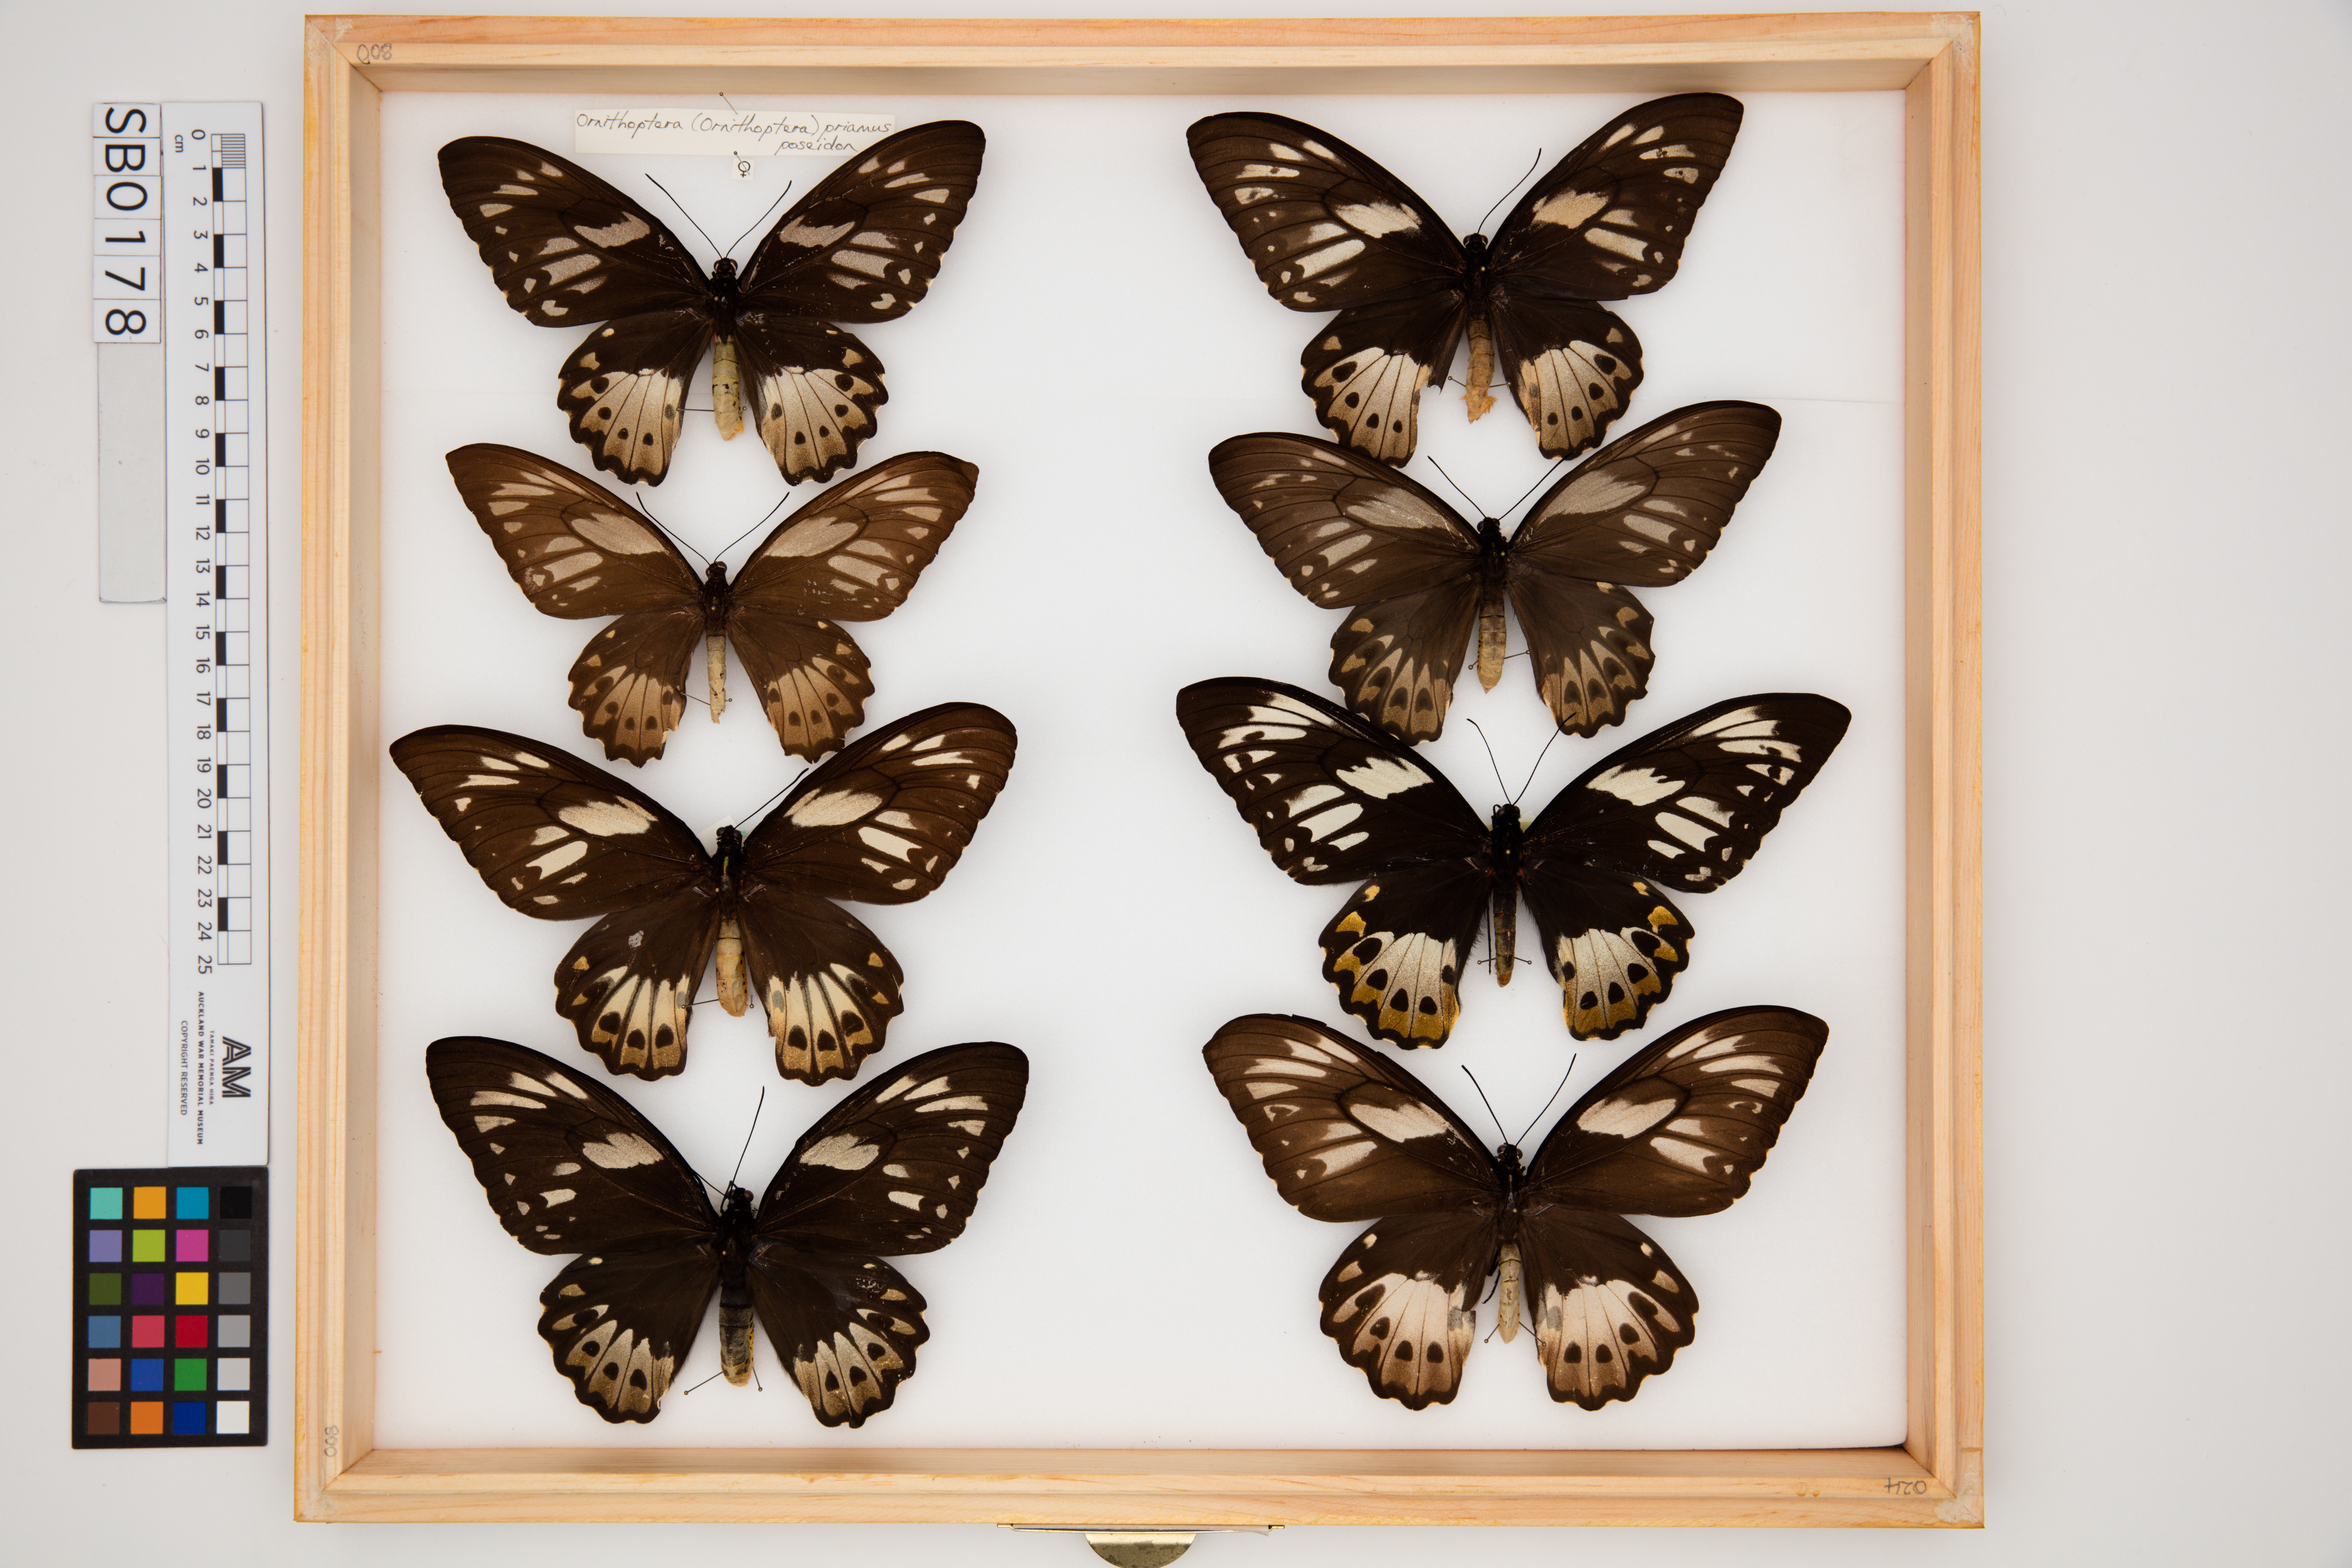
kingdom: Animalia
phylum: Arthropoda
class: Insecta
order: Lepidoptera
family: Papilionidae
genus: Ornithoptera
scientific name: Ornithoptera priamus
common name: Cape york birdwing
